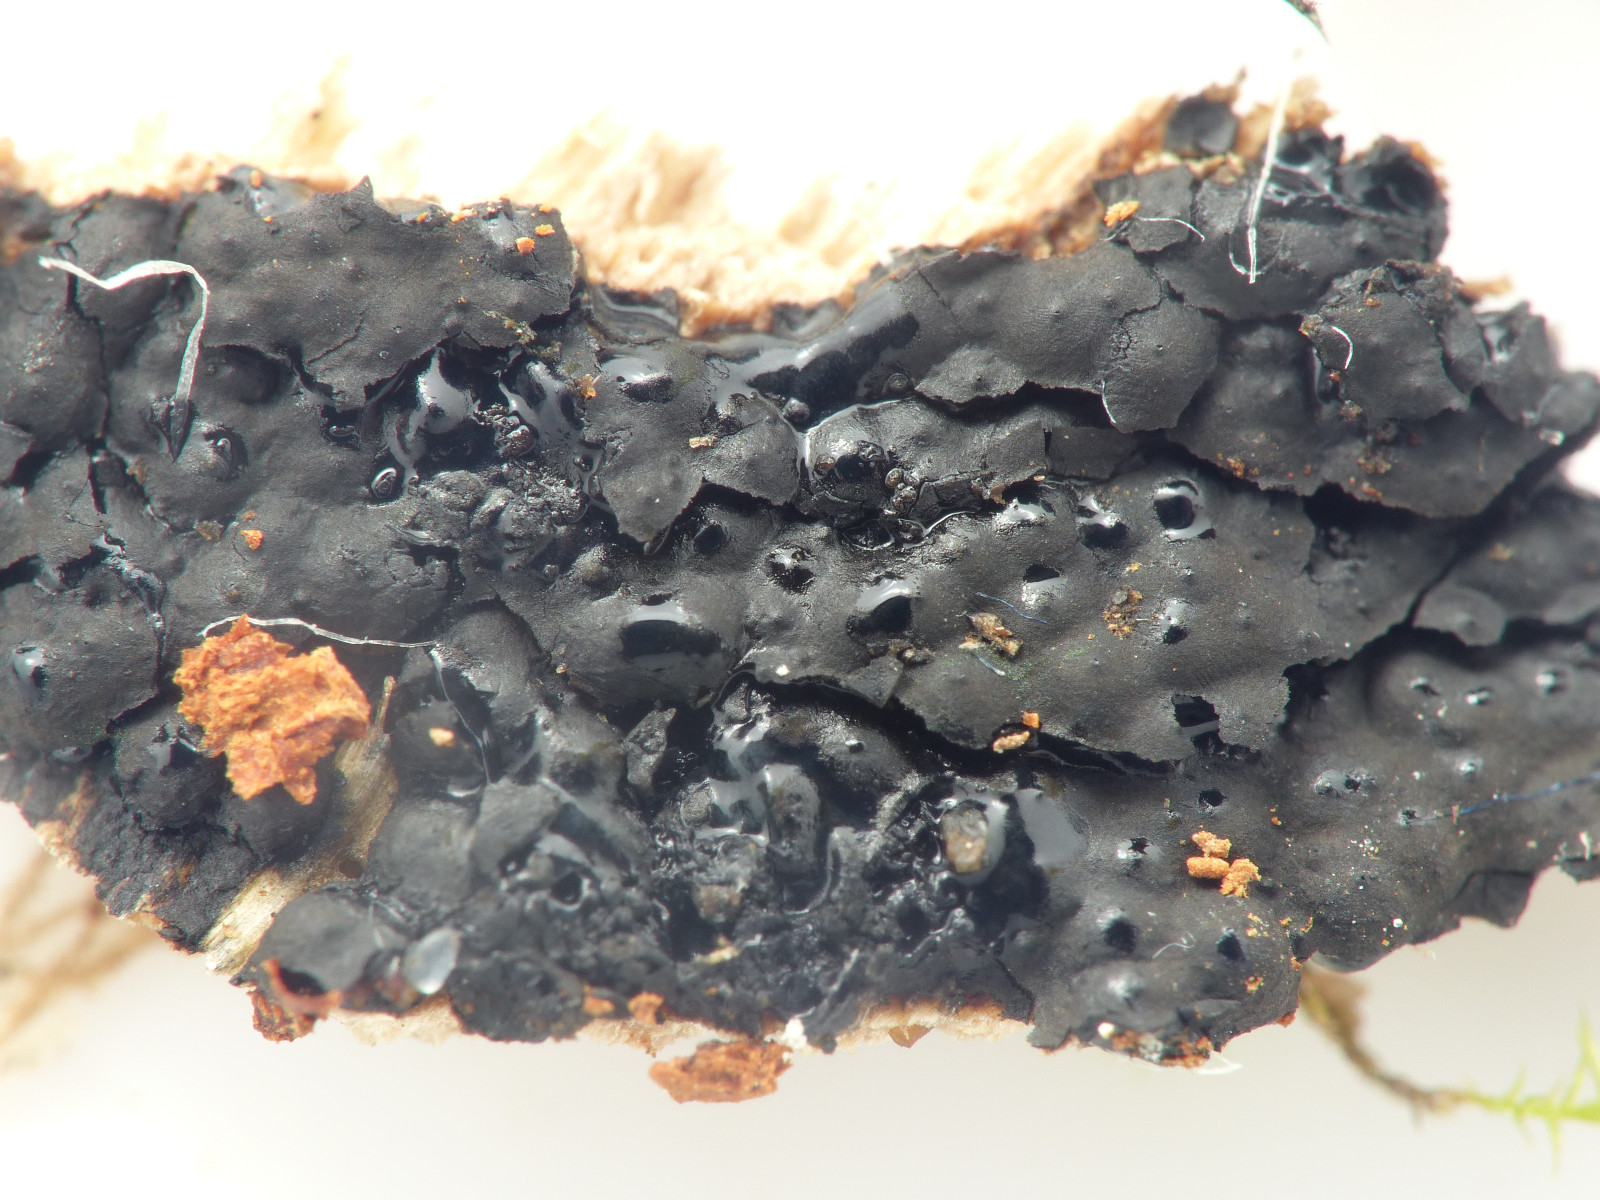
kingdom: Fungi
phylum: Ascomycota
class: Sordariomycetes
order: Xylariales
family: Xylariaceae
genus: Nemania
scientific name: Nemania
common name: kuldyne
